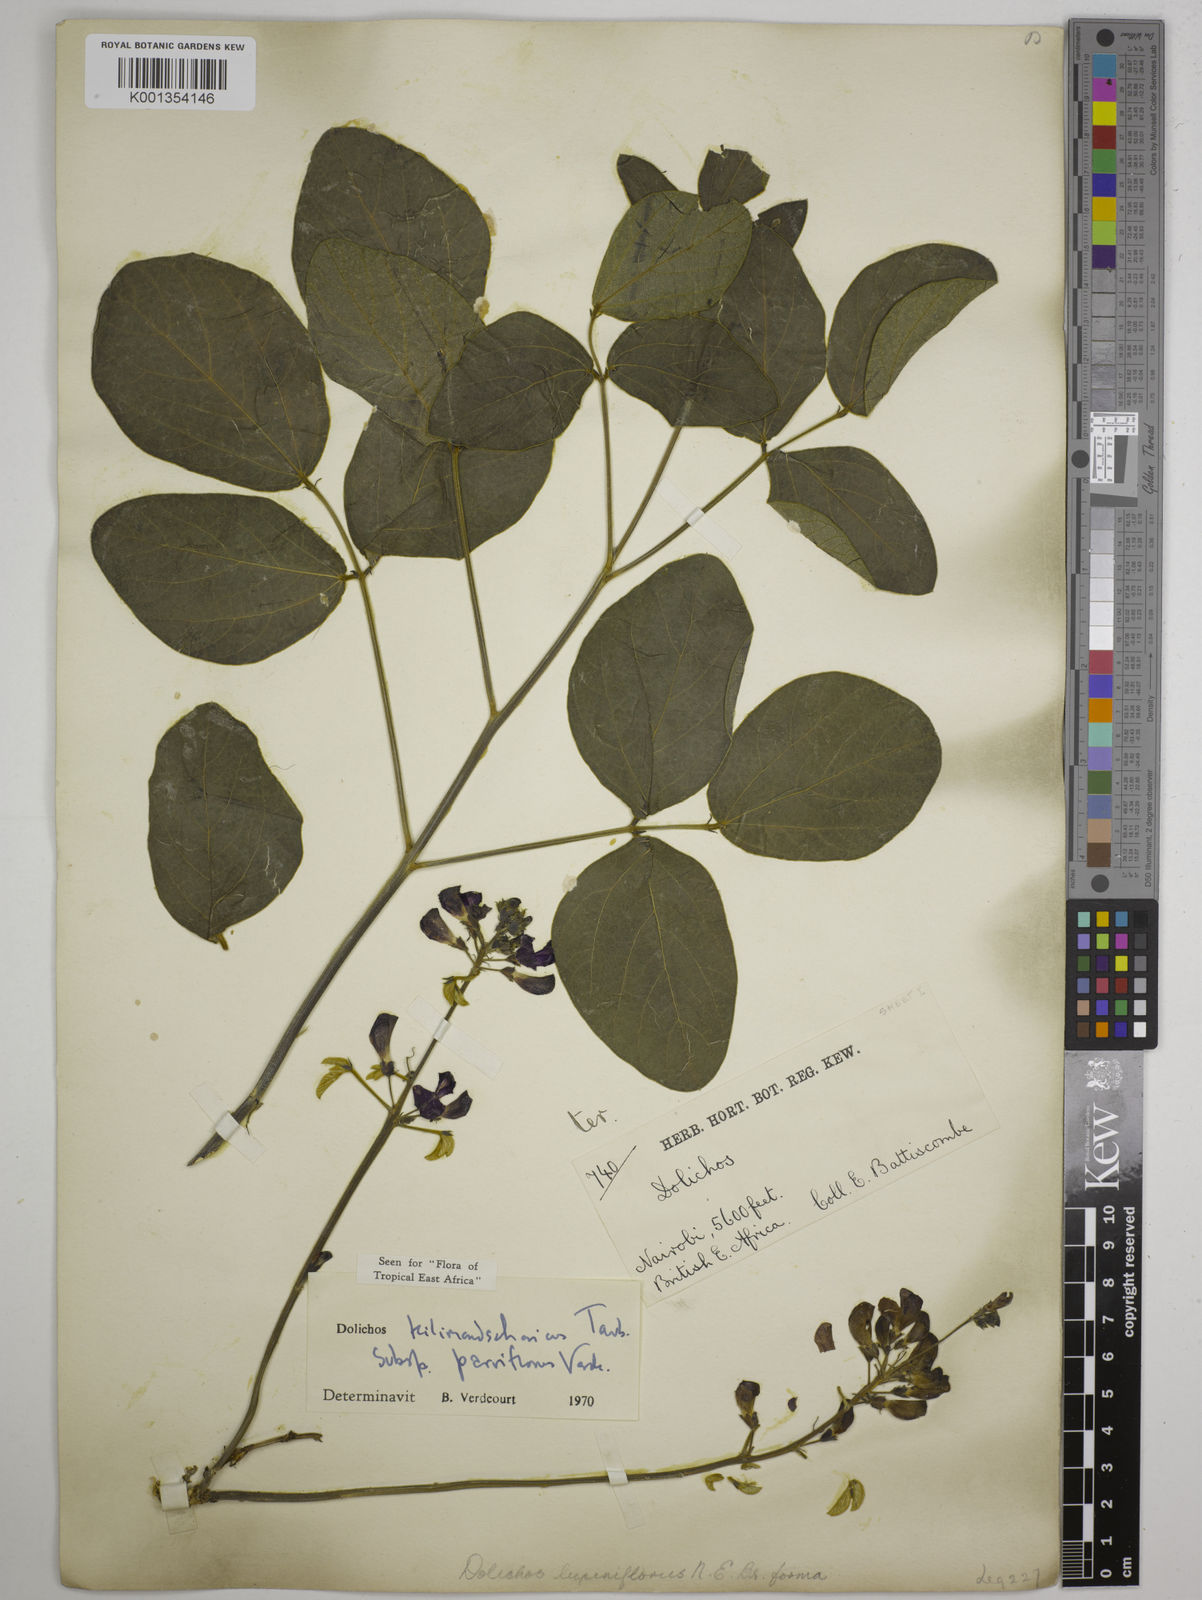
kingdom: Plantae
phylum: Tracheophyta
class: Magnoliopsida
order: Fabales
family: Fabaceae
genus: Dolichos
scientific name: Dolichos
